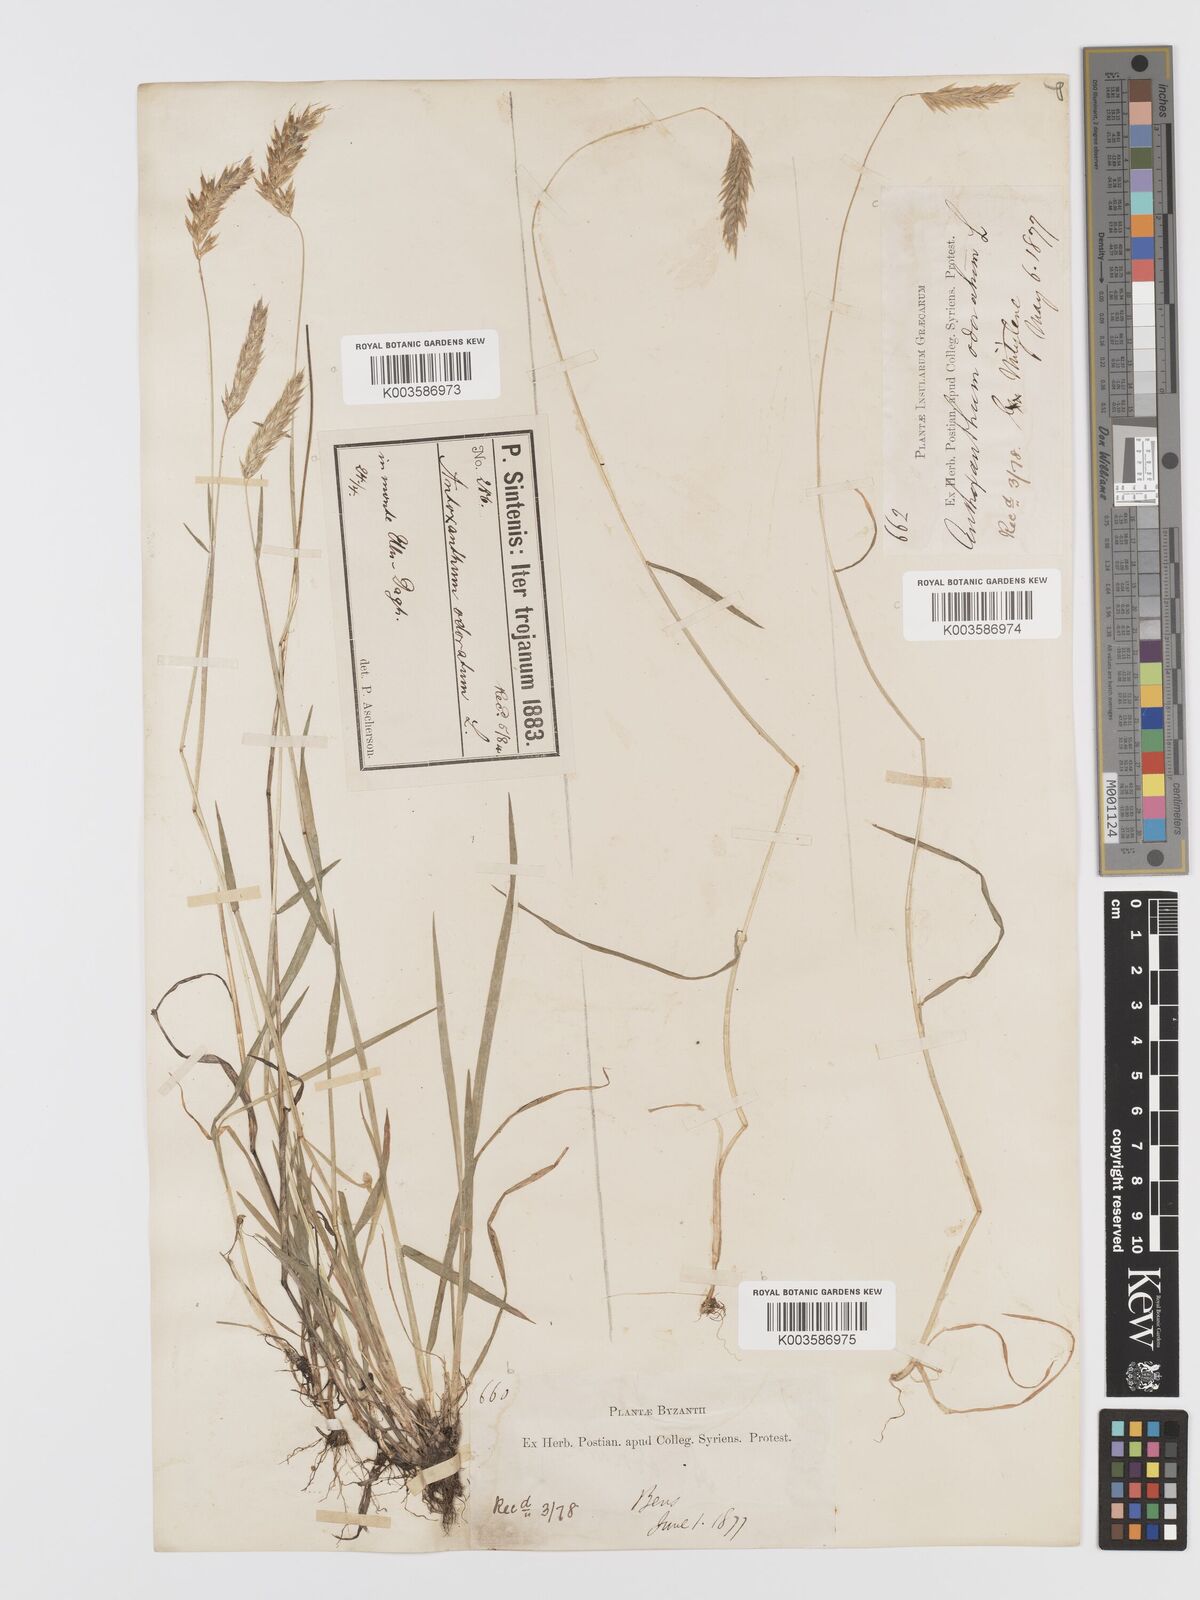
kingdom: Plantae
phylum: Tracheophyta
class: Liliopsida
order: Poales
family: Poaceae
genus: Anthoxanthum
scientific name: Anthoxanthum odoratum
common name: Sweet vernalgrass
